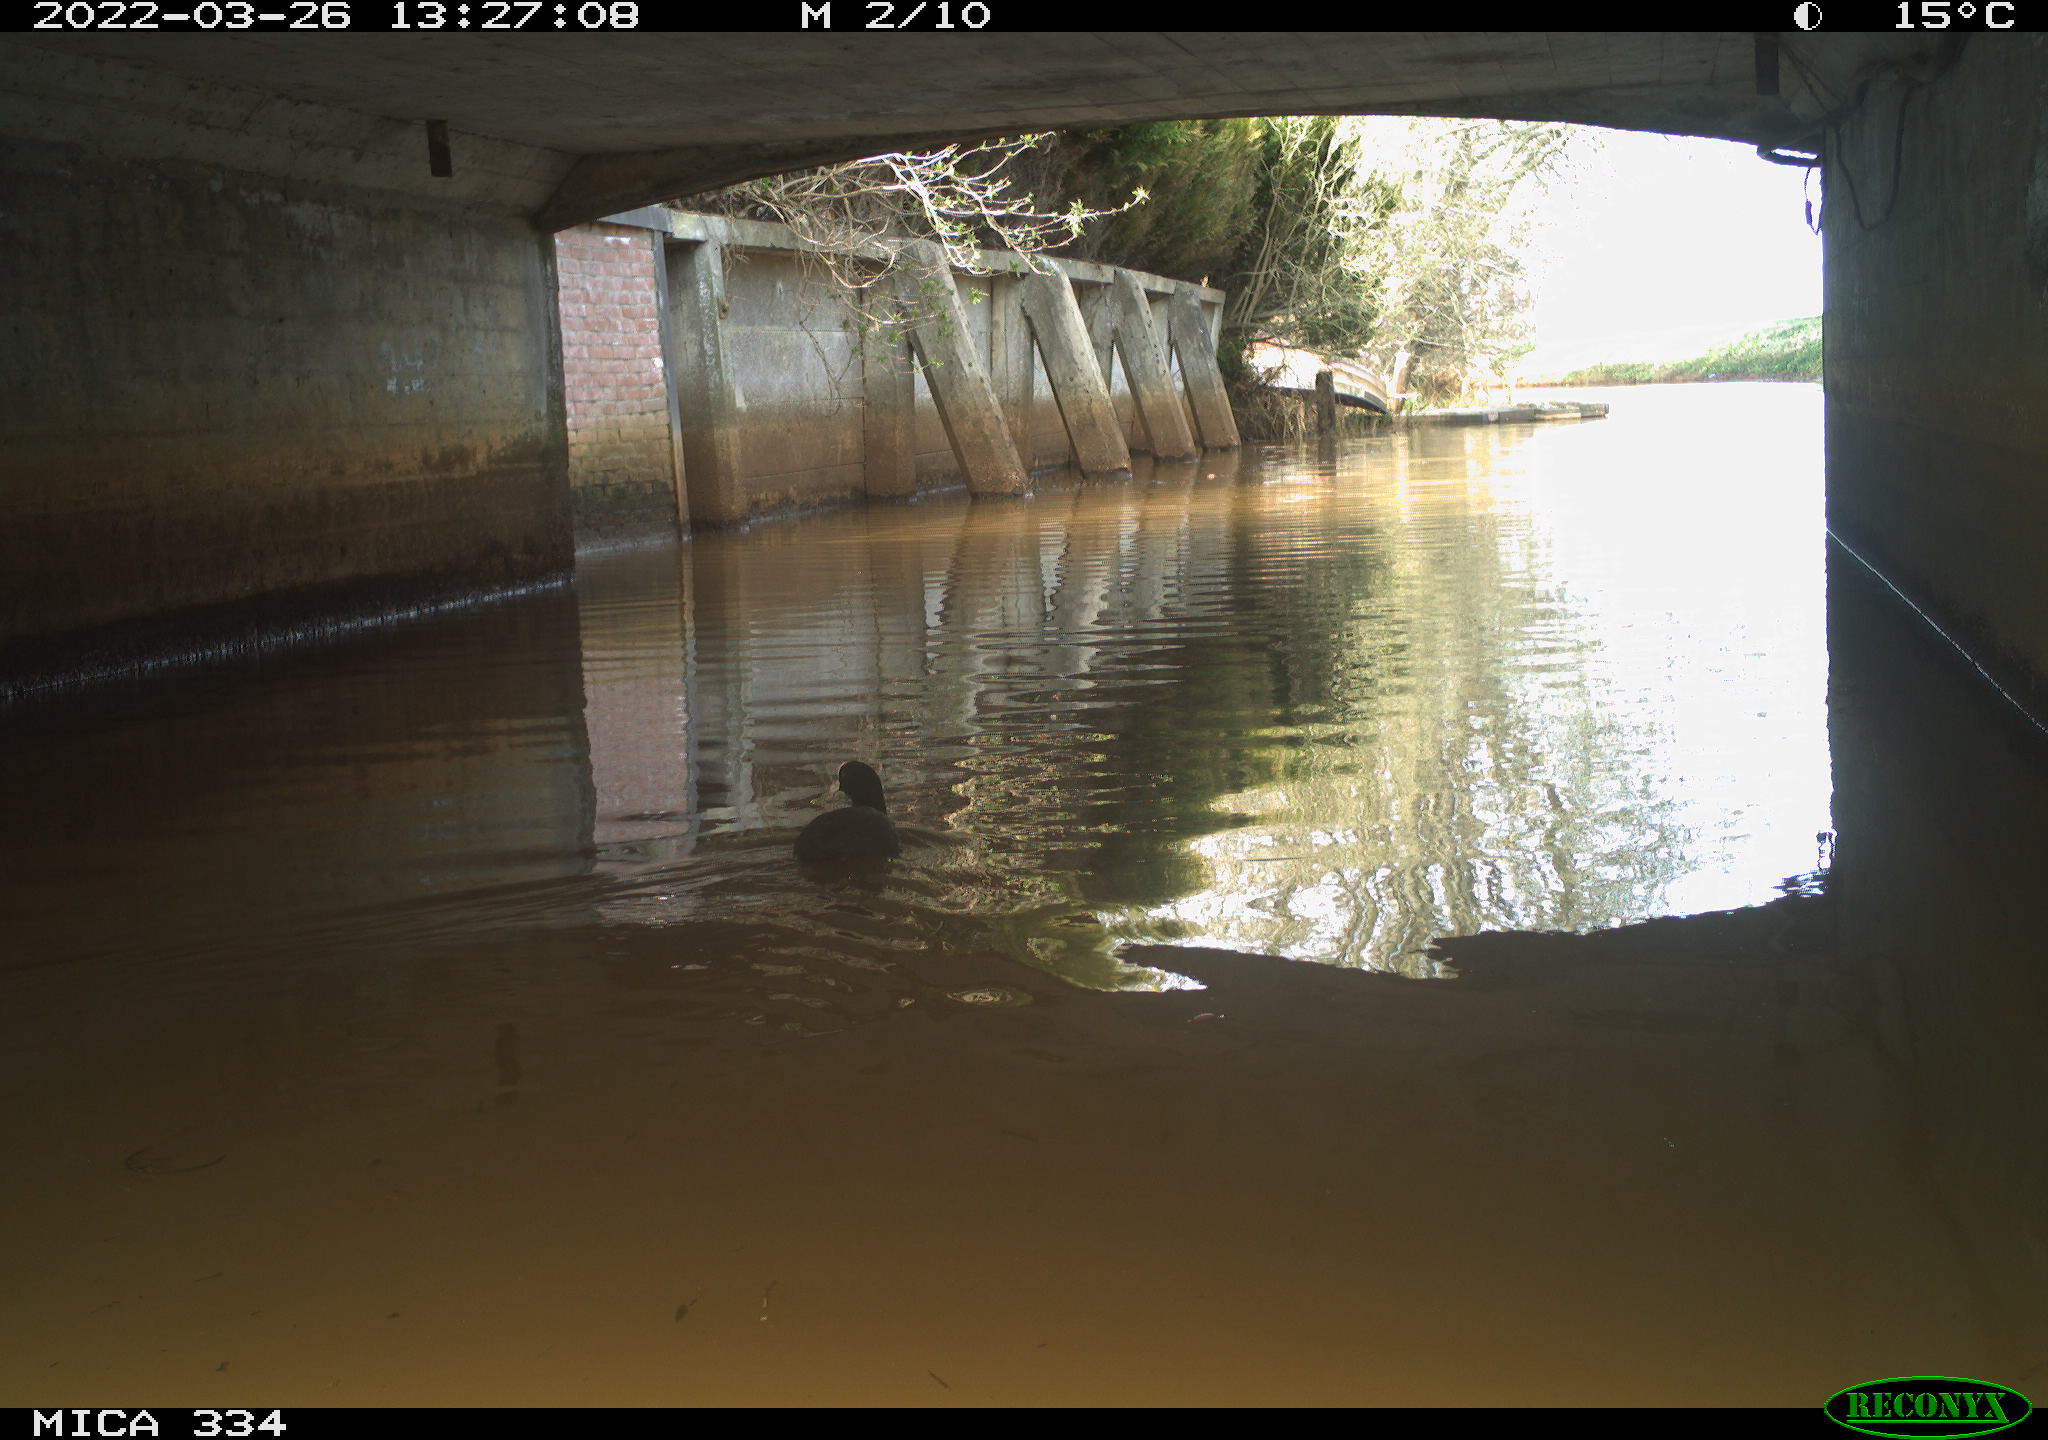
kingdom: Animalia
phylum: Chordata
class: Aves
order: Gruiformes
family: Rallidae
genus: Fulica
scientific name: Fulica atra
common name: Eurasian coot
